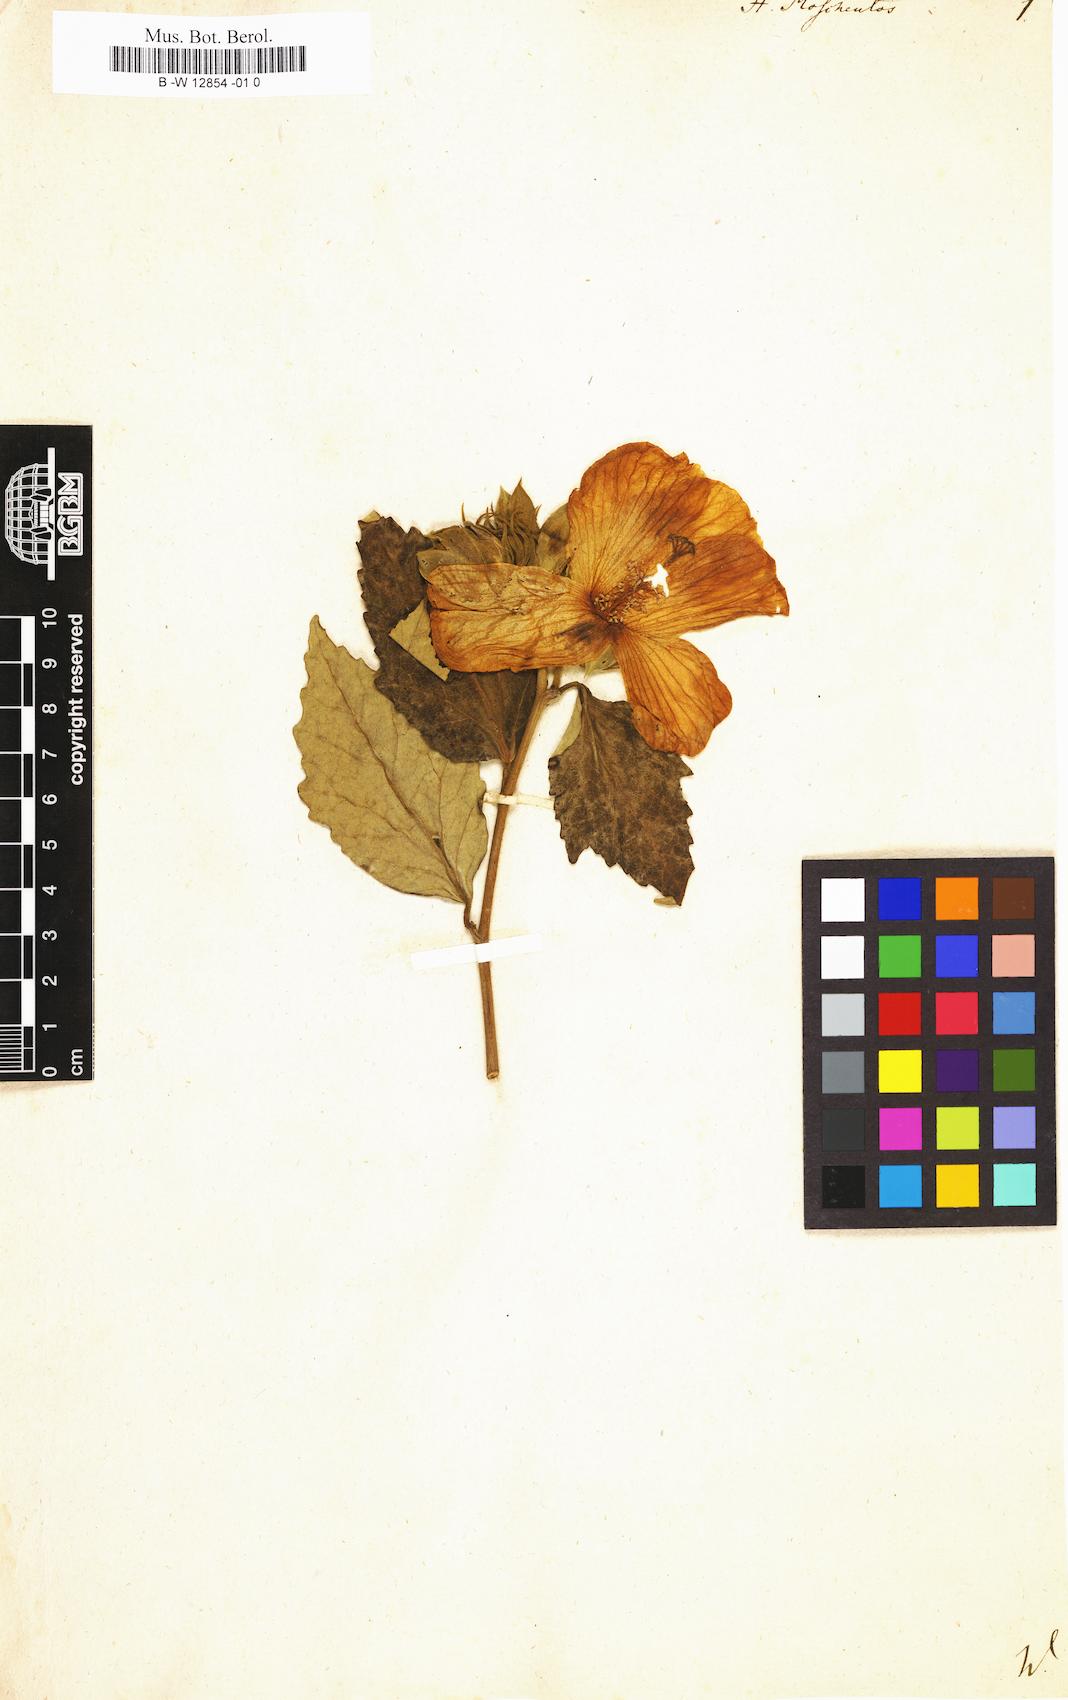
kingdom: Plantae
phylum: Tracheophyta
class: Magnoliopsida
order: Malvales
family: Malvaceae
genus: Hibiscus
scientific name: Hibiscus moscheutos
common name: Common rose-mallow
